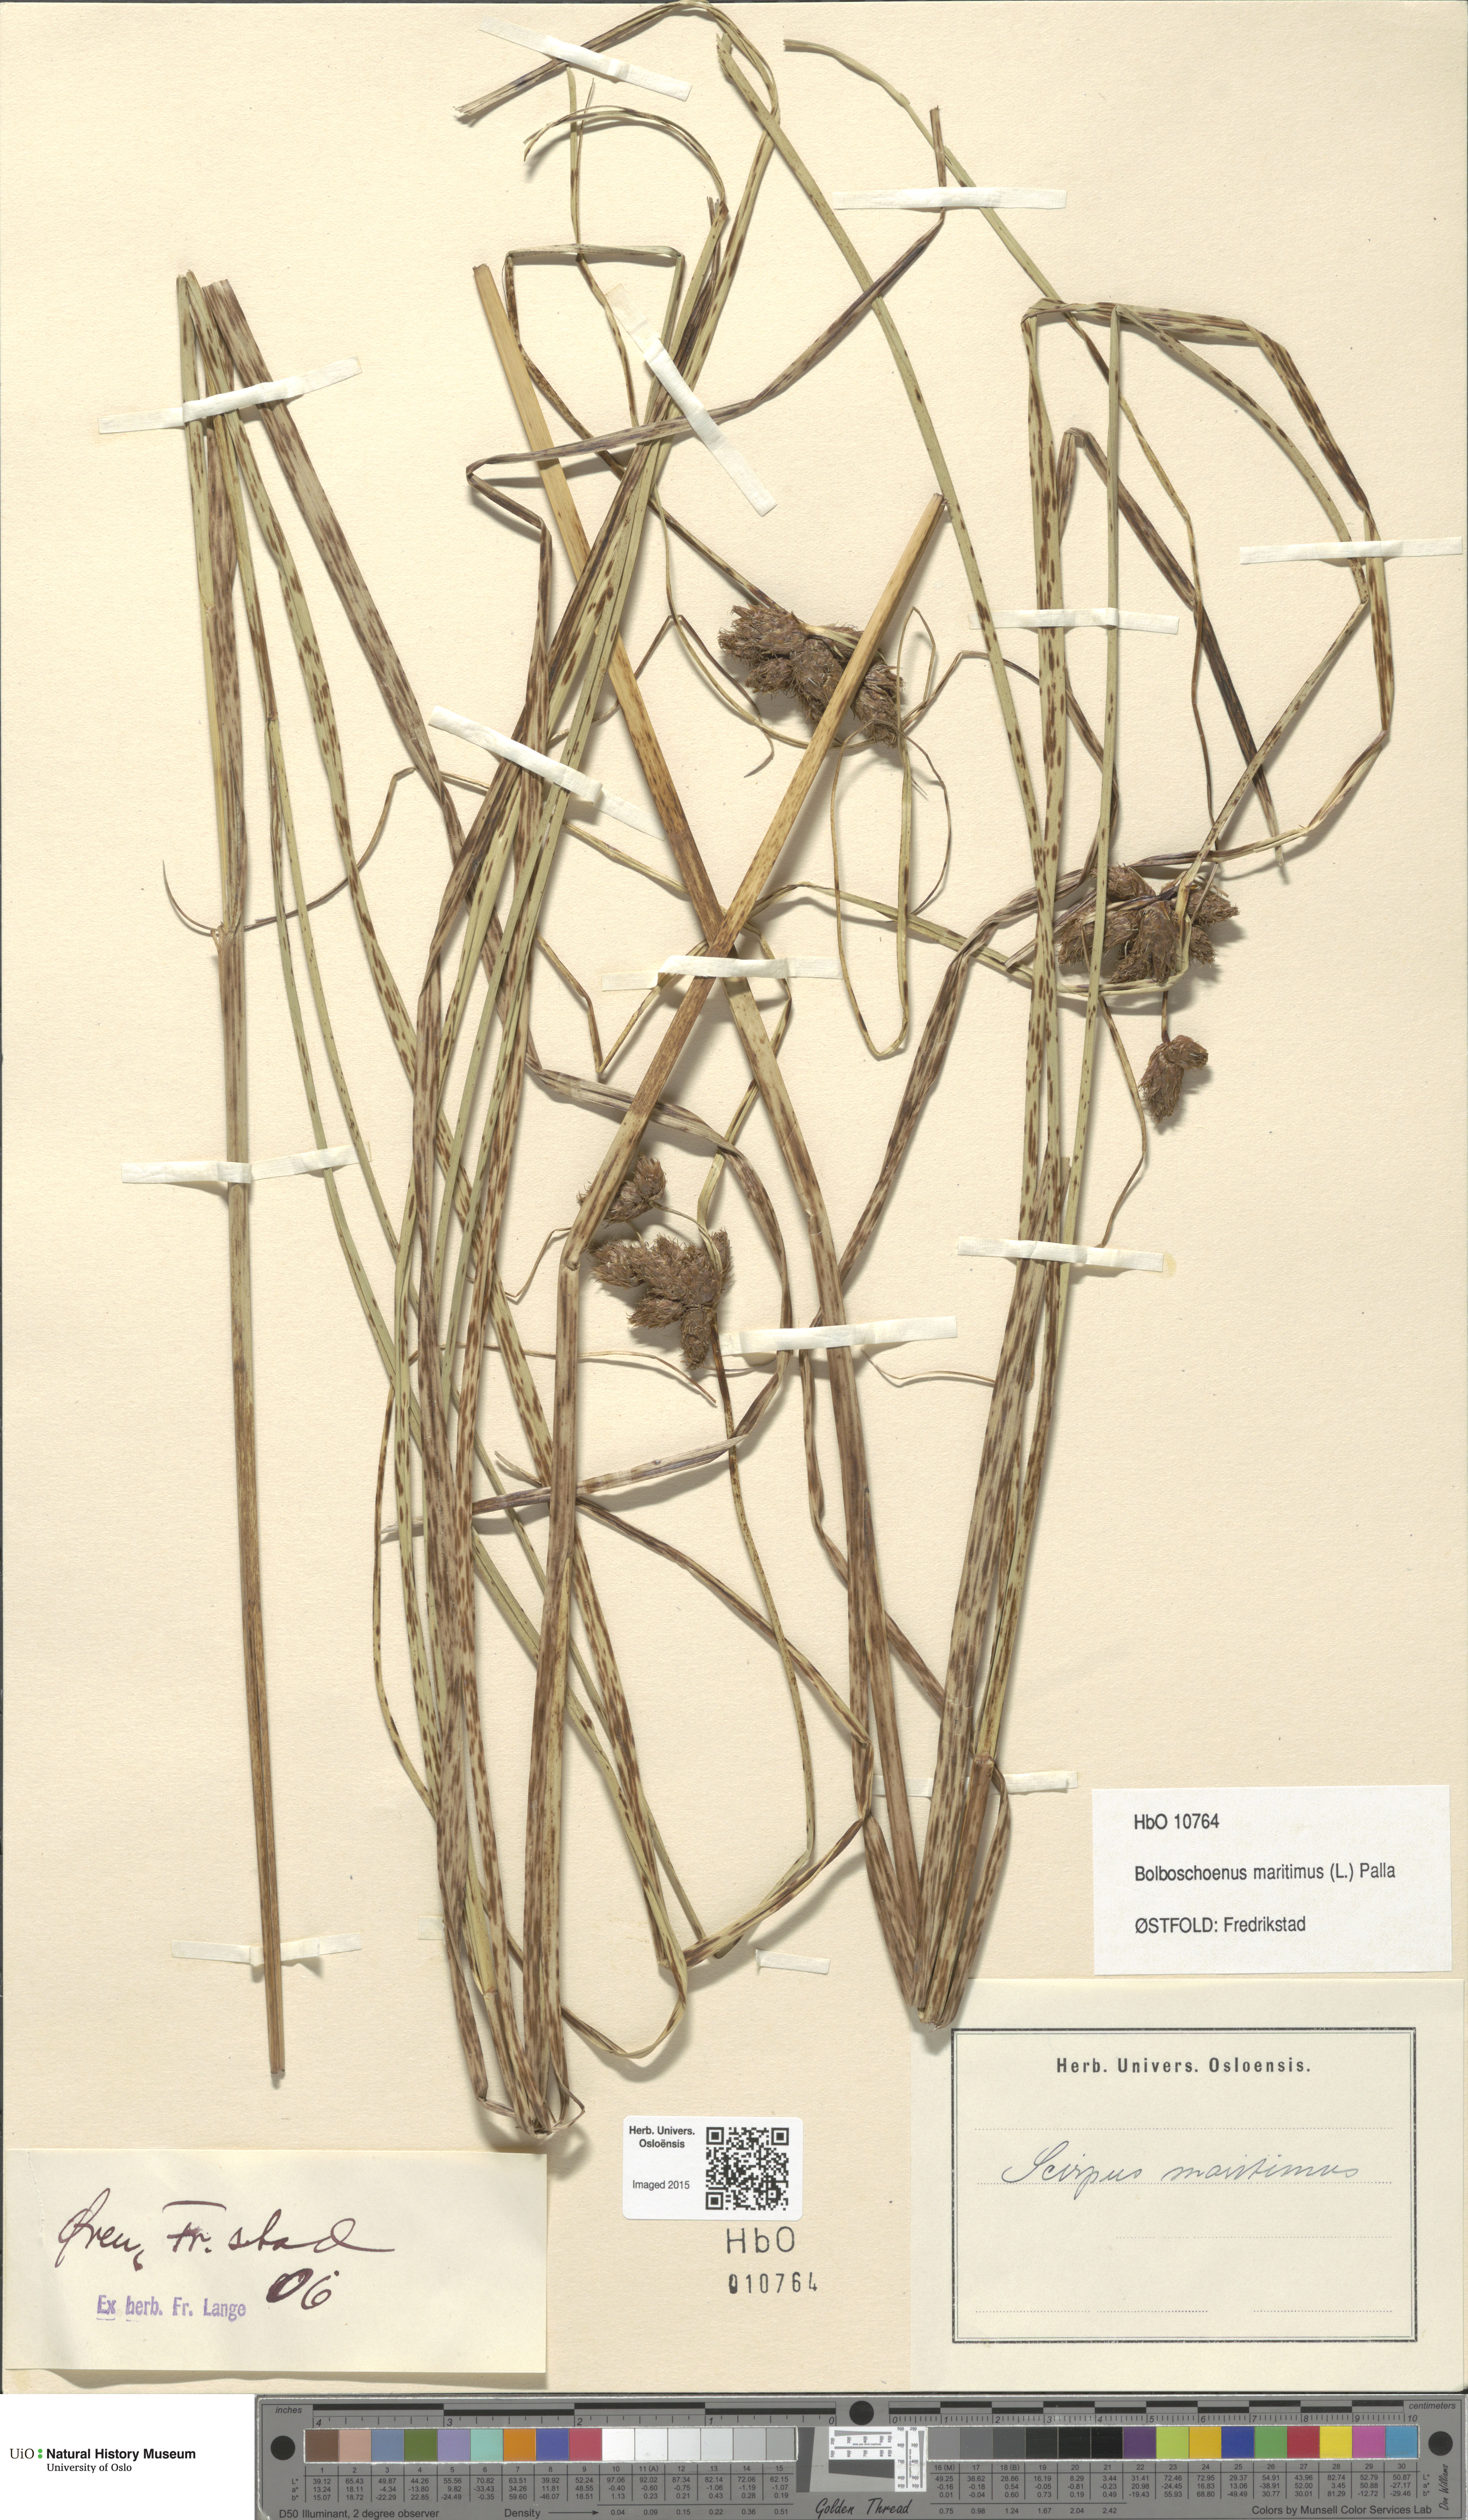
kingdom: Plantae
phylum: Tracheophyta
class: Liliopsida
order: Poales
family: Cyperaceae
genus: Bolboschoenus
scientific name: Bolboschoenus maritimus
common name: Sea club-rush
